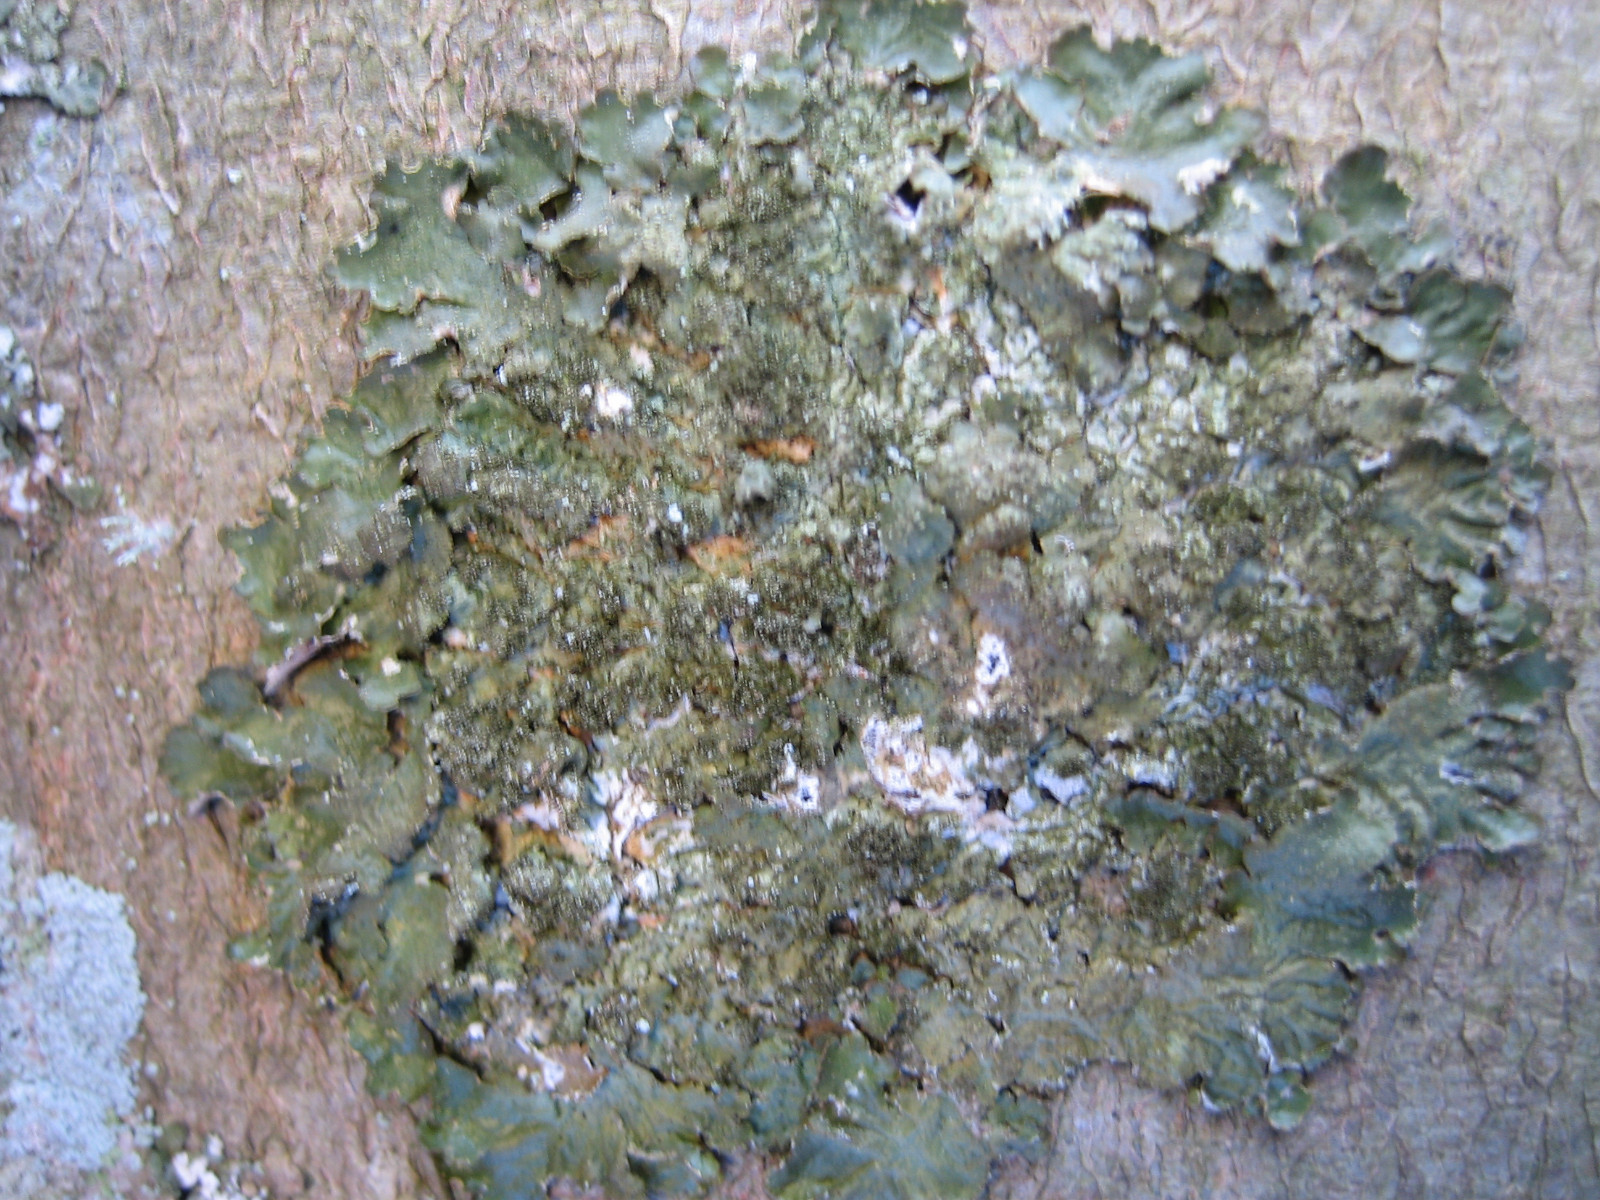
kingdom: Fungi
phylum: Ascomycota
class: Lecanoromycetes
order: Lecanorales
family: Parmeliaceae
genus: Melanelixia
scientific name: Melanelixia subaurifera
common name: guldpudret skållav
